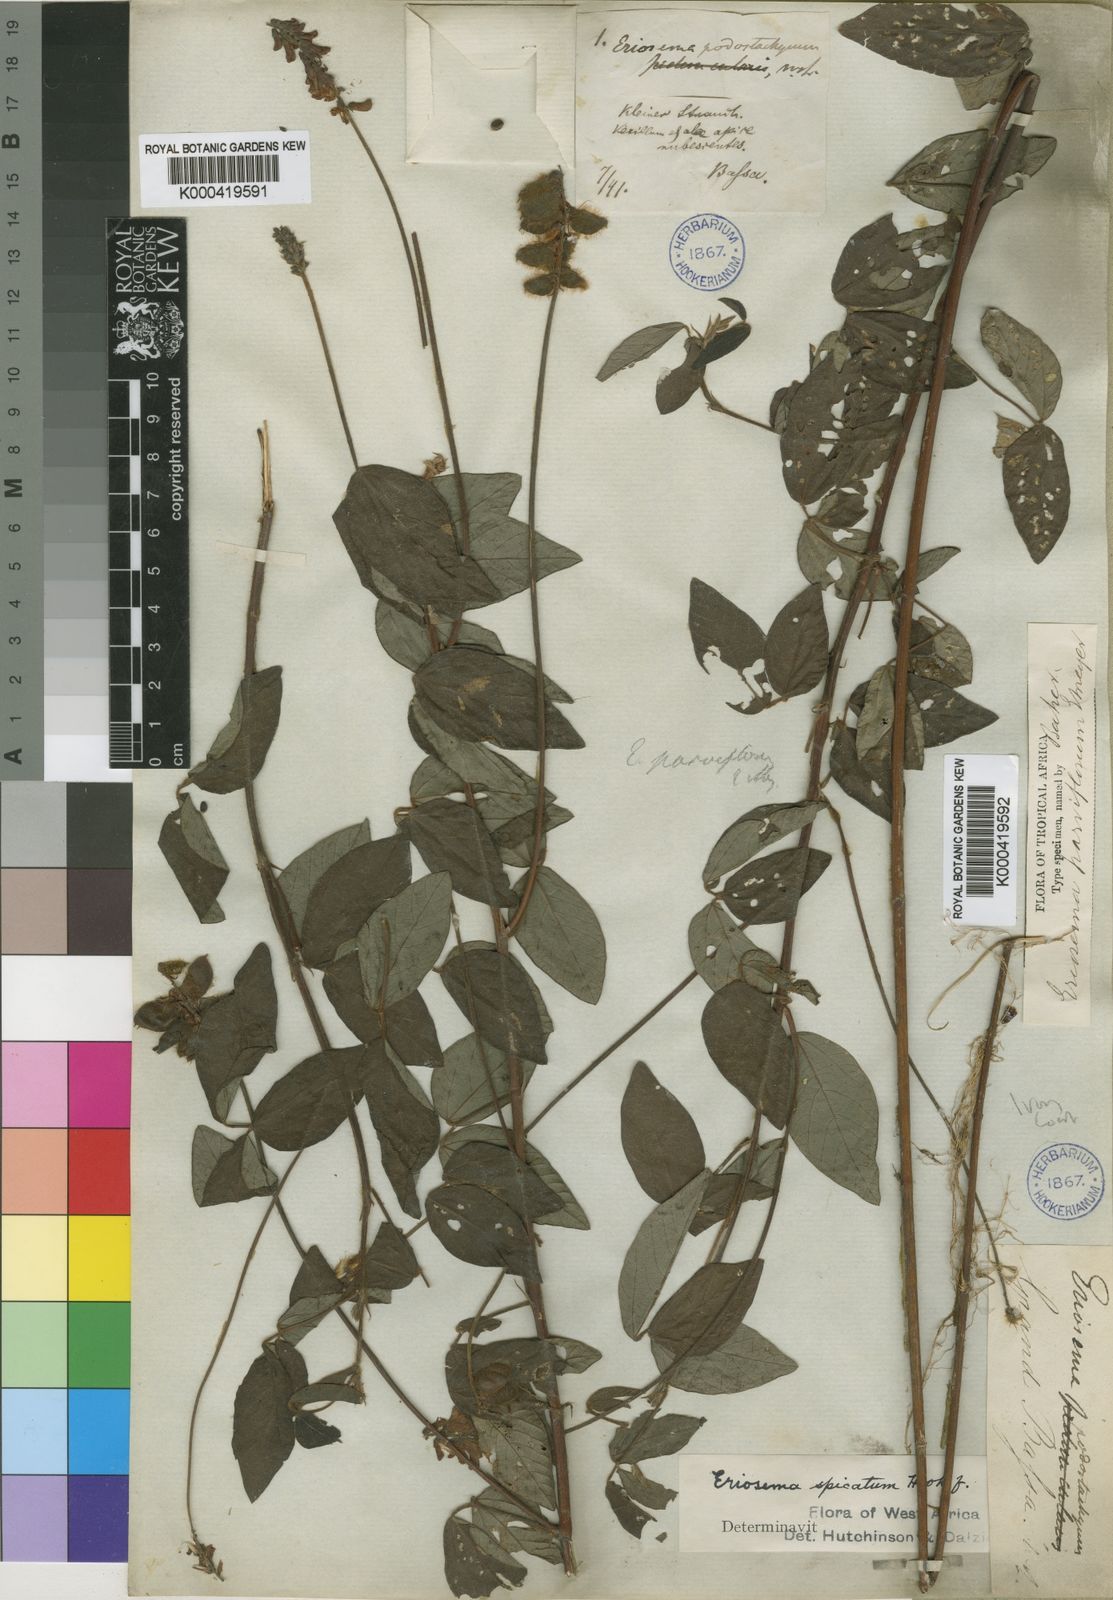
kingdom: Plantae
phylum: Tracheophyta
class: Magnoliopsida
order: Fabales
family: Fabaceae
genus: Eriosema
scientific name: Eriosema parviflorum
